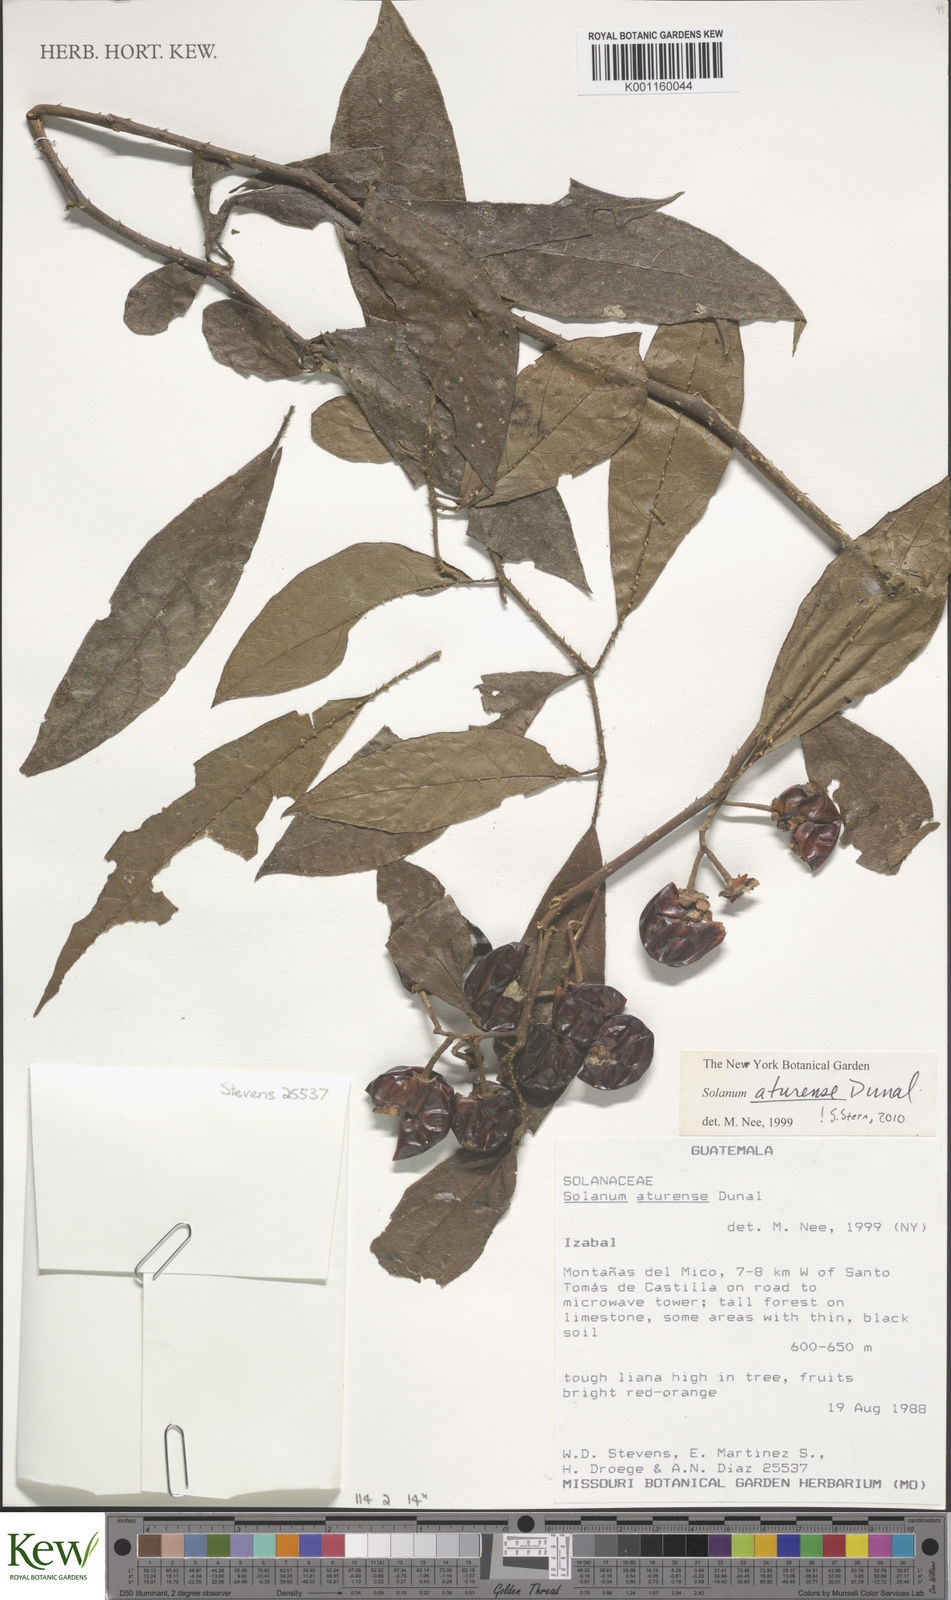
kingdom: Plantae
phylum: Tracheophyta
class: Magnoliopsida
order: Solanales
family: Solanaceae
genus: Solanum
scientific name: Solanum aturense
